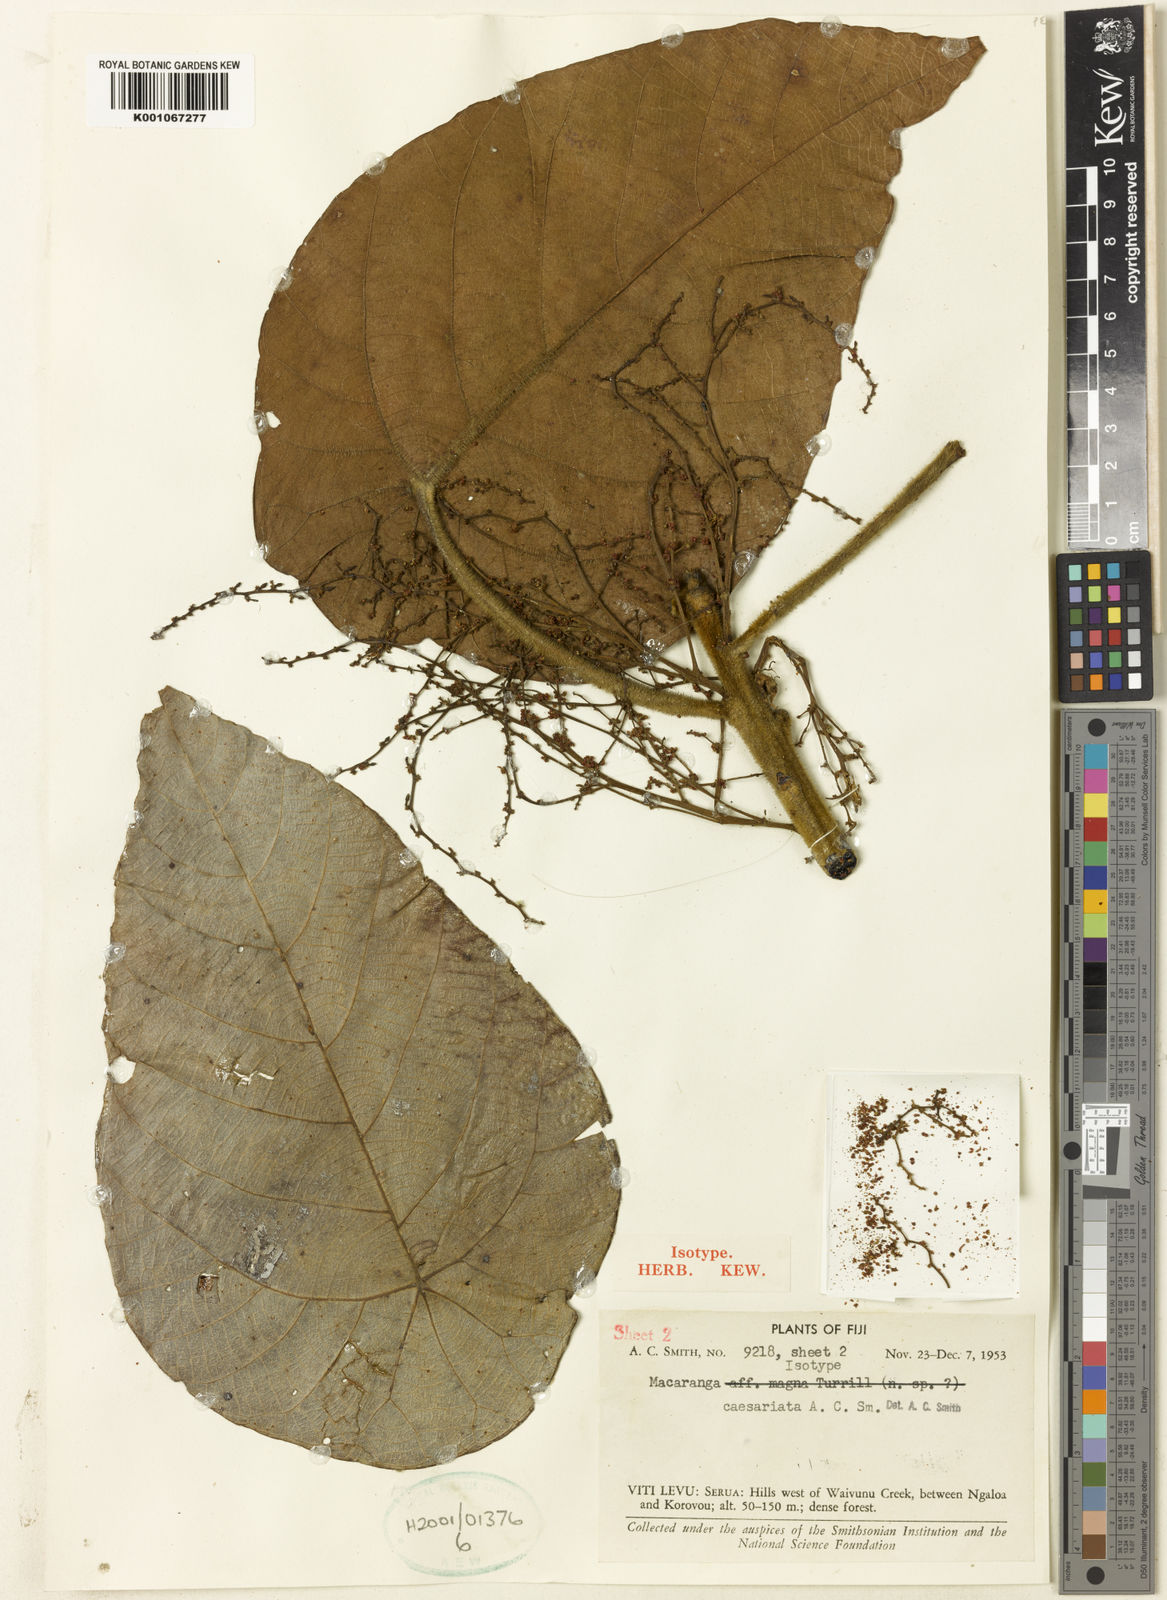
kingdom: Plantae
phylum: Tracheophyta
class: Magnoliopsida
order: Malpighiales
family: Euphorbiaceae
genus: Macaranga
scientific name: Macaranga caesariata
